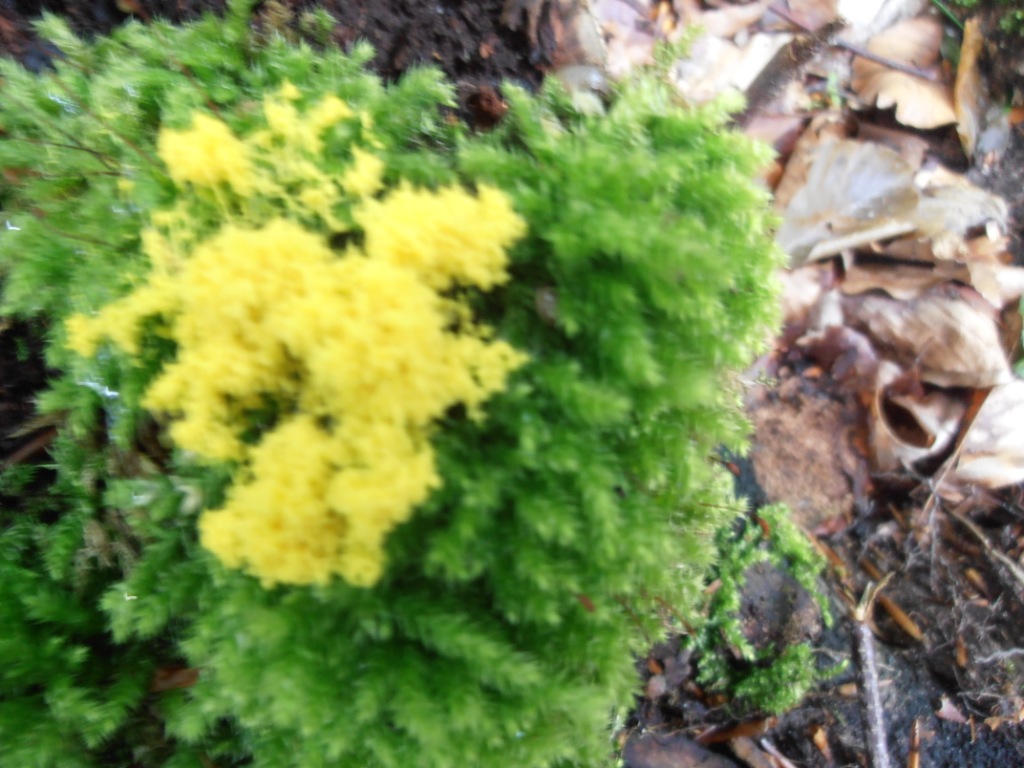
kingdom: Protozoa
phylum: Mycetozoa
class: Myxomycetes
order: Physarales
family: Physaraceae
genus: Fuligo
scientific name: Fuligo septica
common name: gul troldsmør
